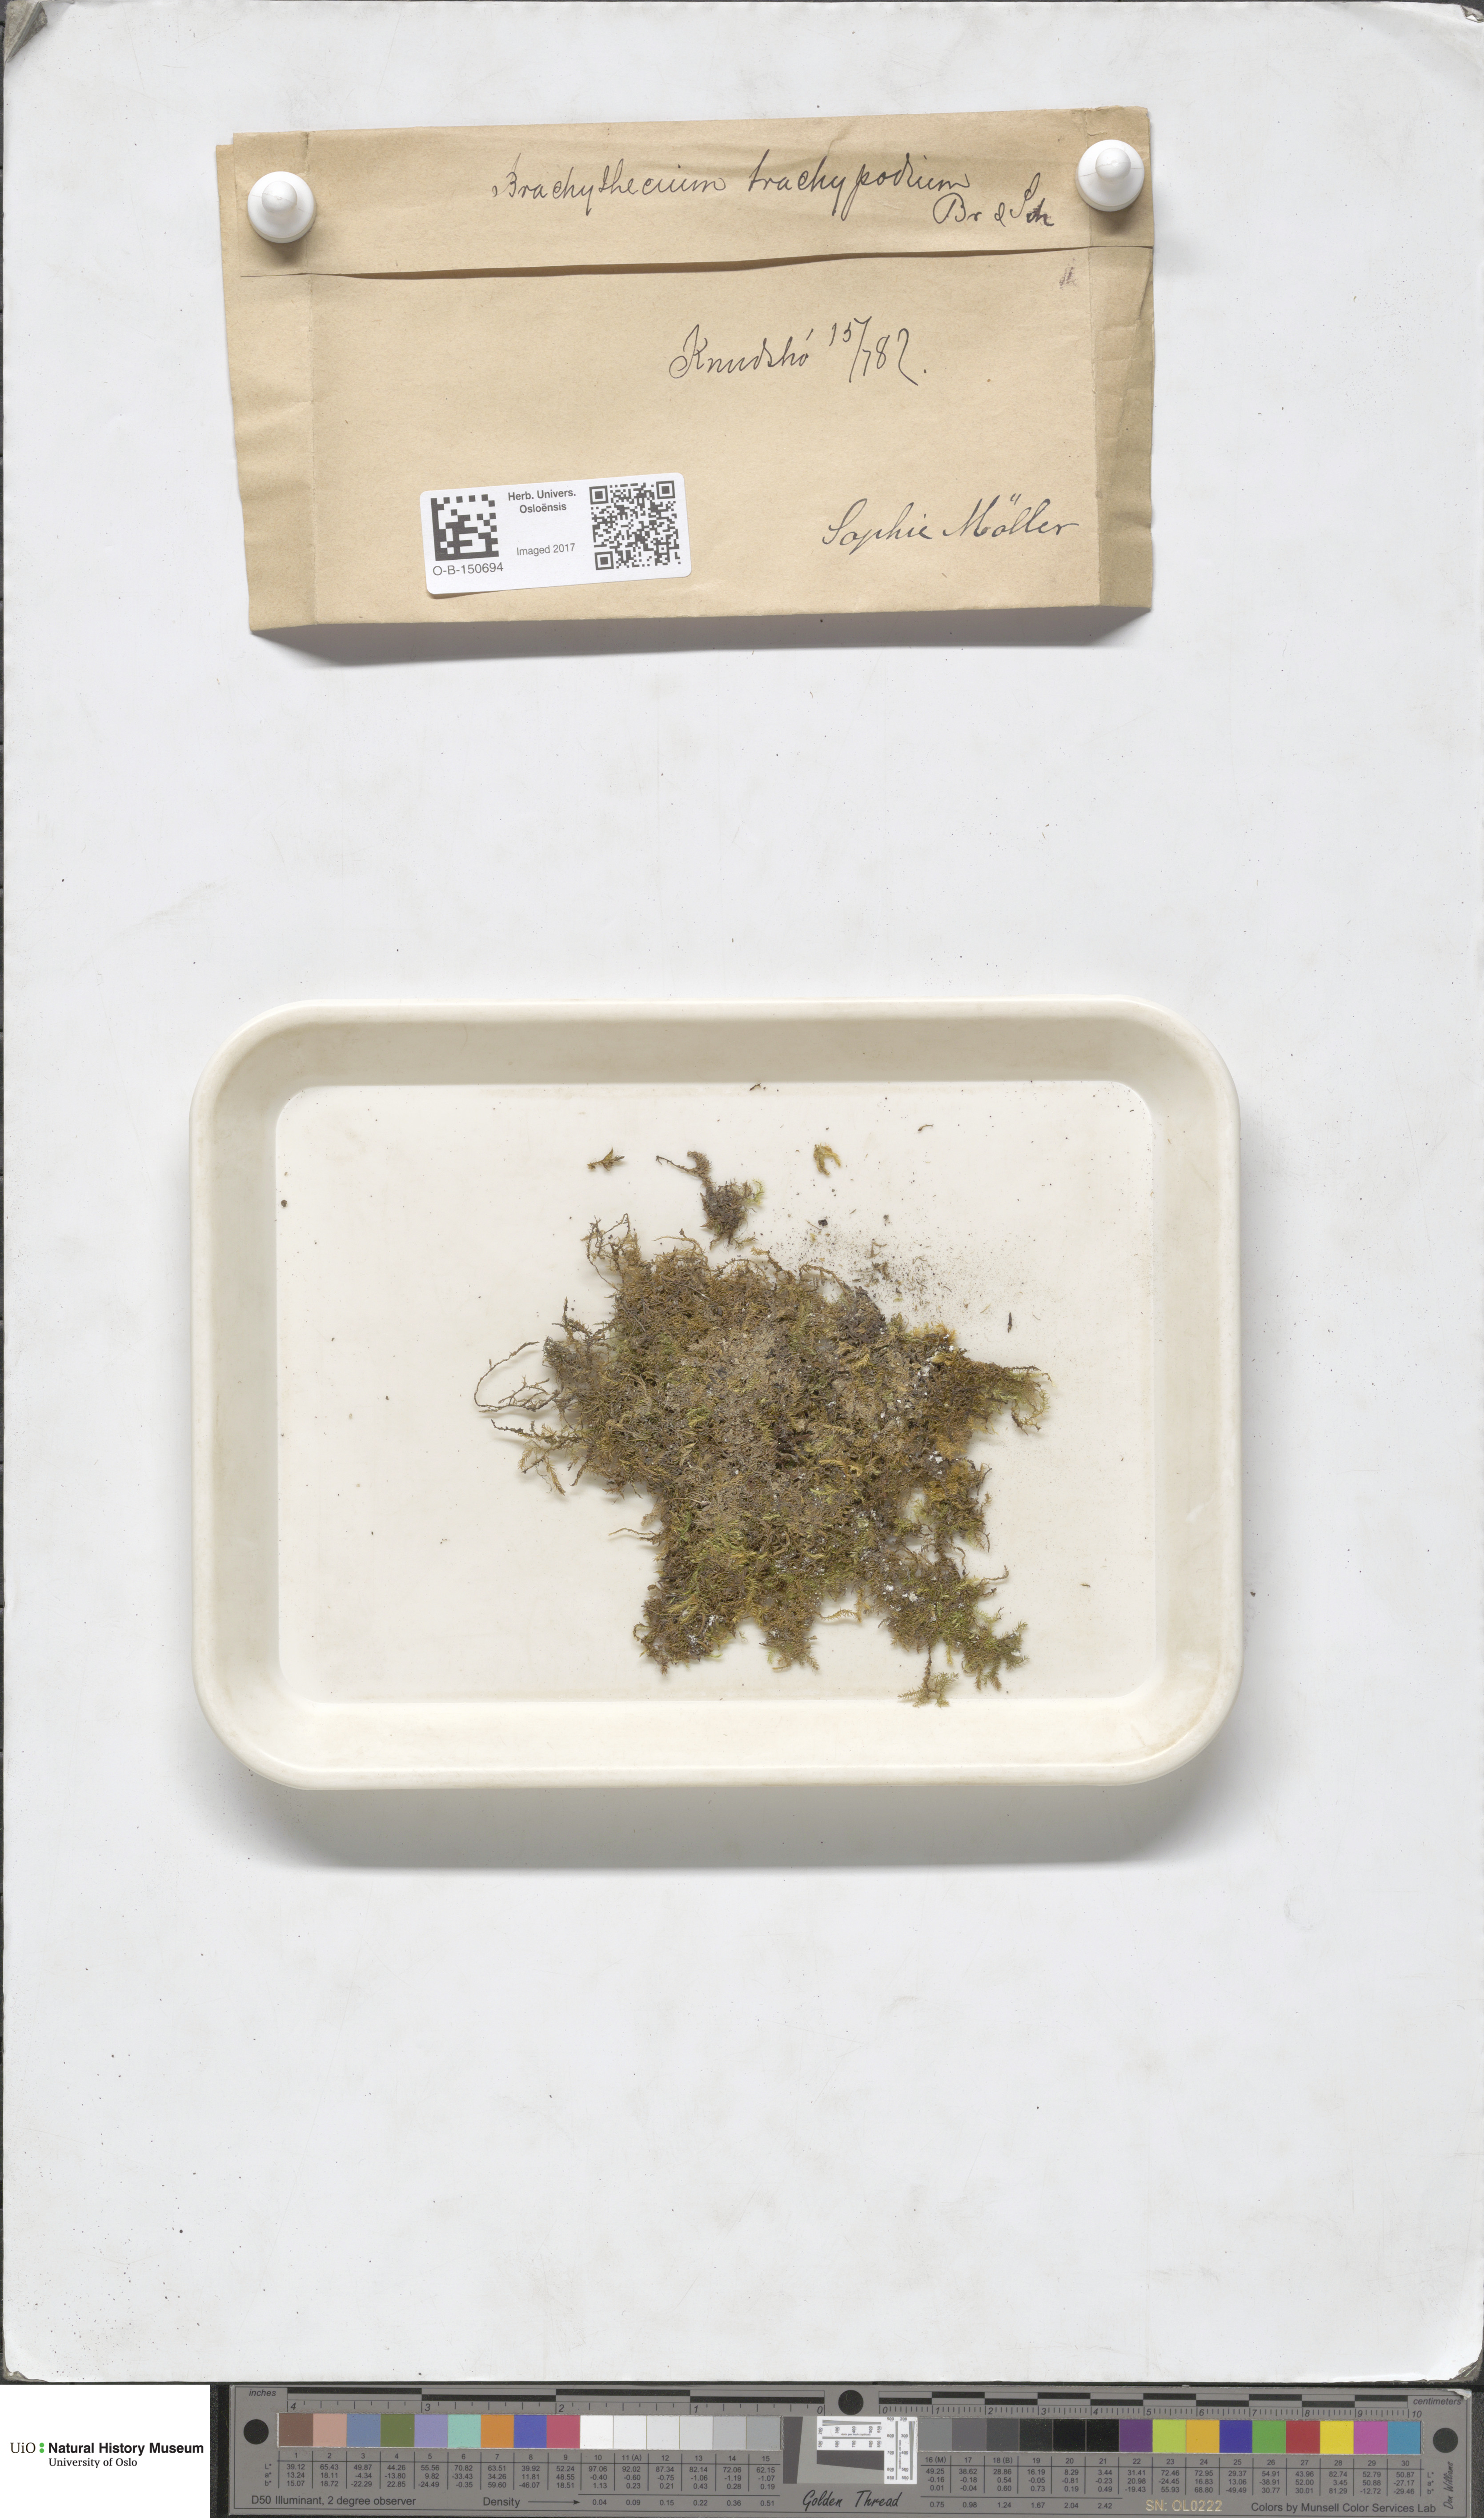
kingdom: Plantae
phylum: Bryophyta
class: Bryopsida
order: Hypnales
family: Brachytheciaceae
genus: Brachytheciastrum
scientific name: Brachytheciastrum trachypodium
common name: Lawers feather-moss
